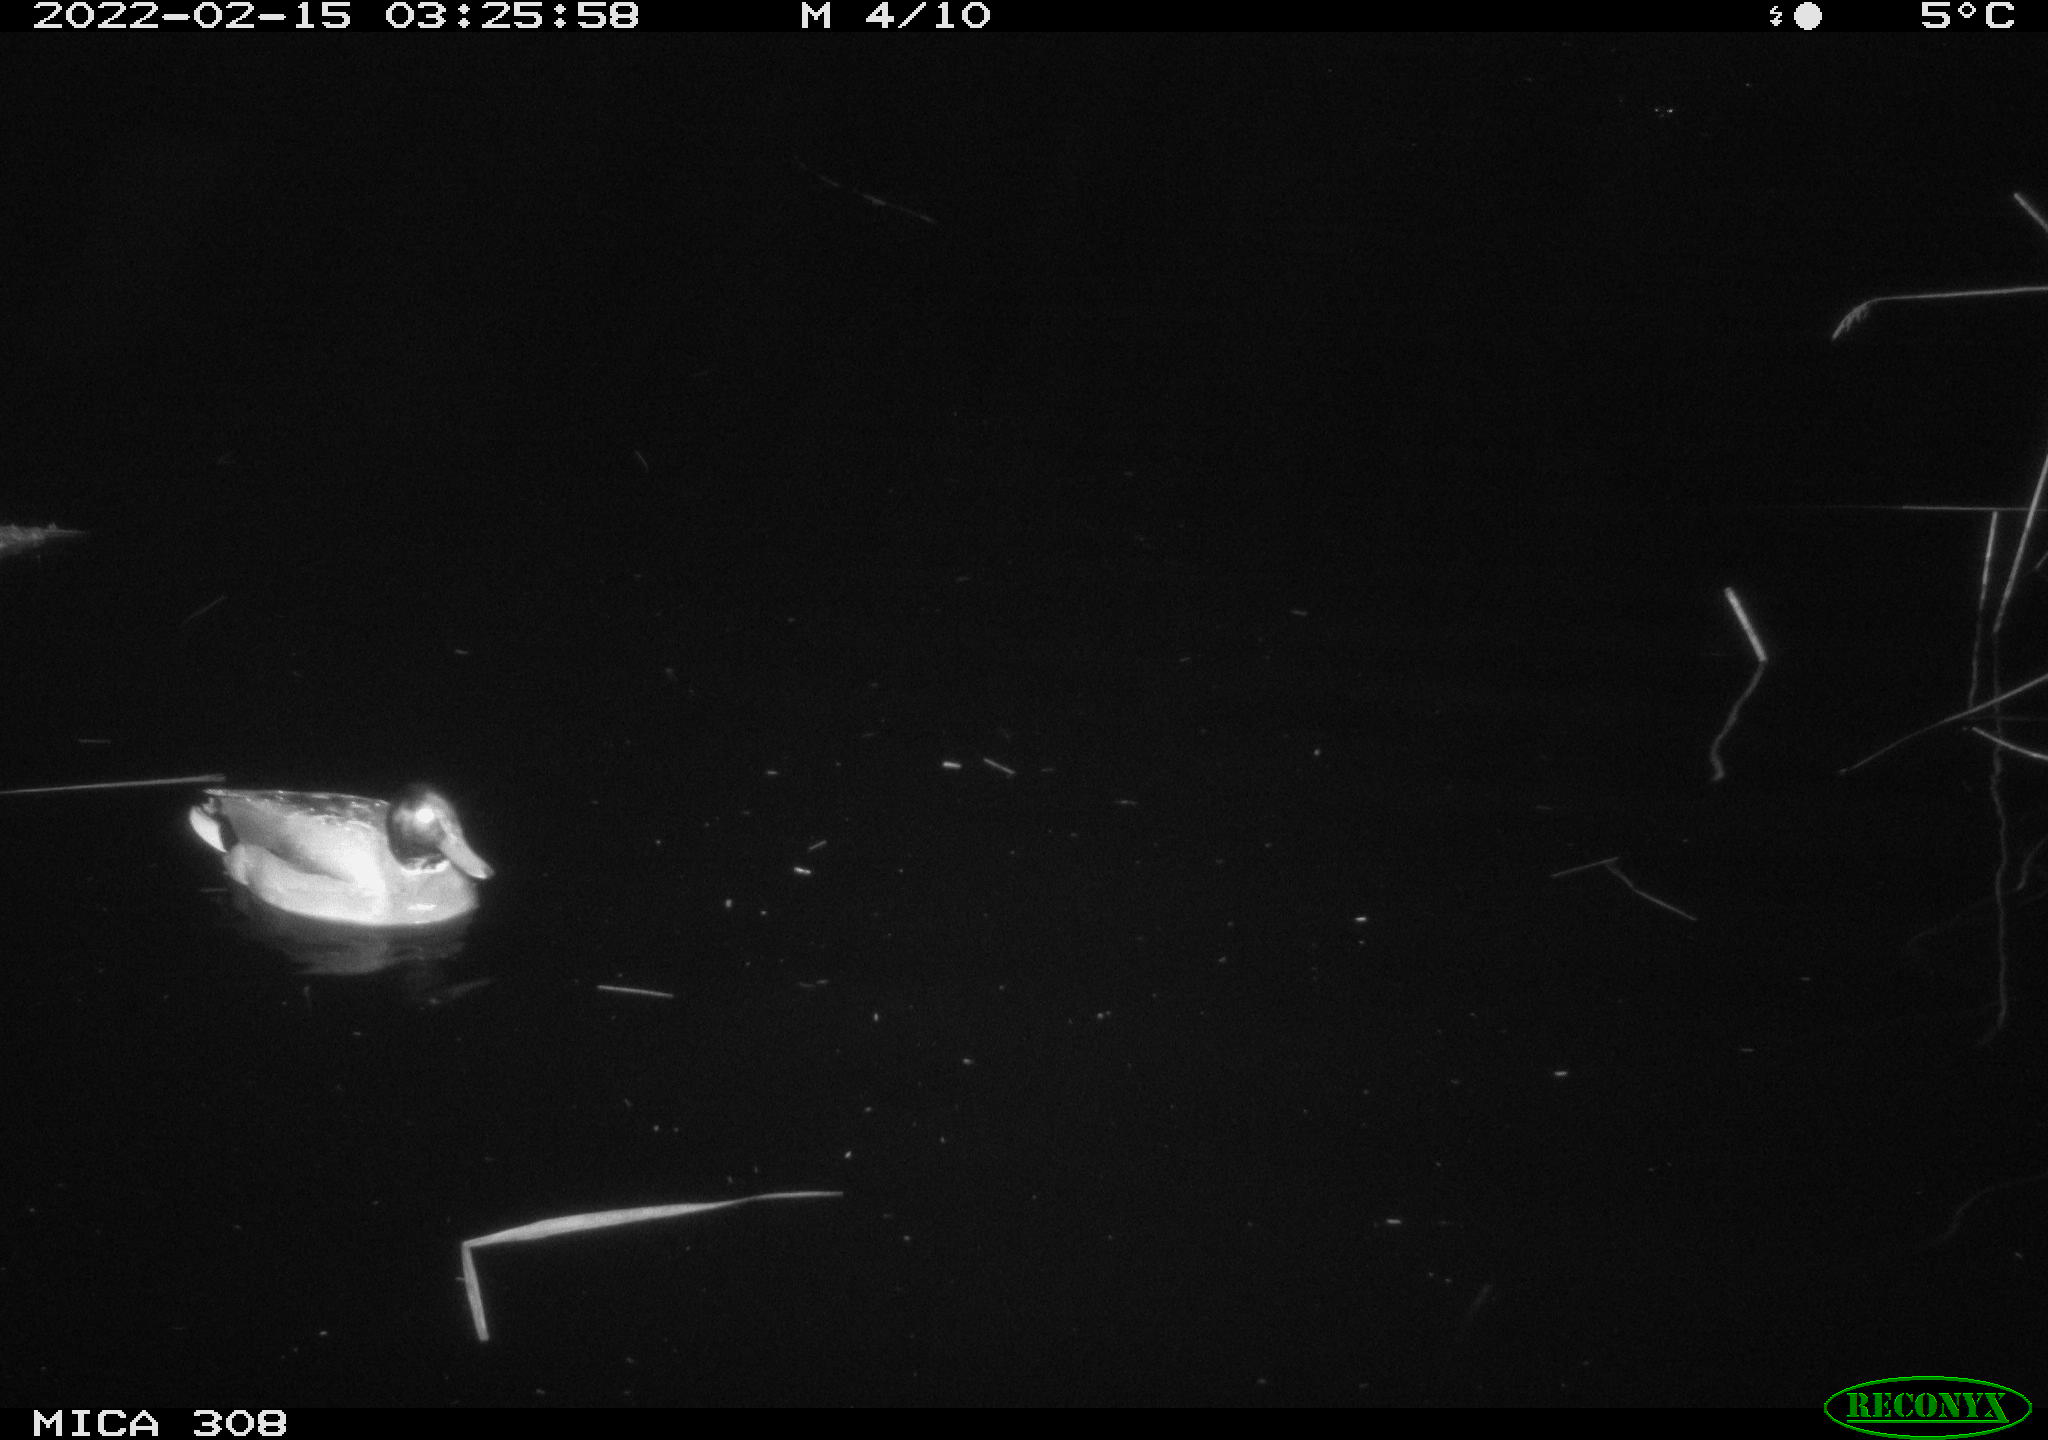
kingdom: Animalia
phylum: Chordata
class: Aves
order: Anseriformes
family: Anatidae
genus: Anas
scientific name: Anas platyrhynchos
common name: Mallard
